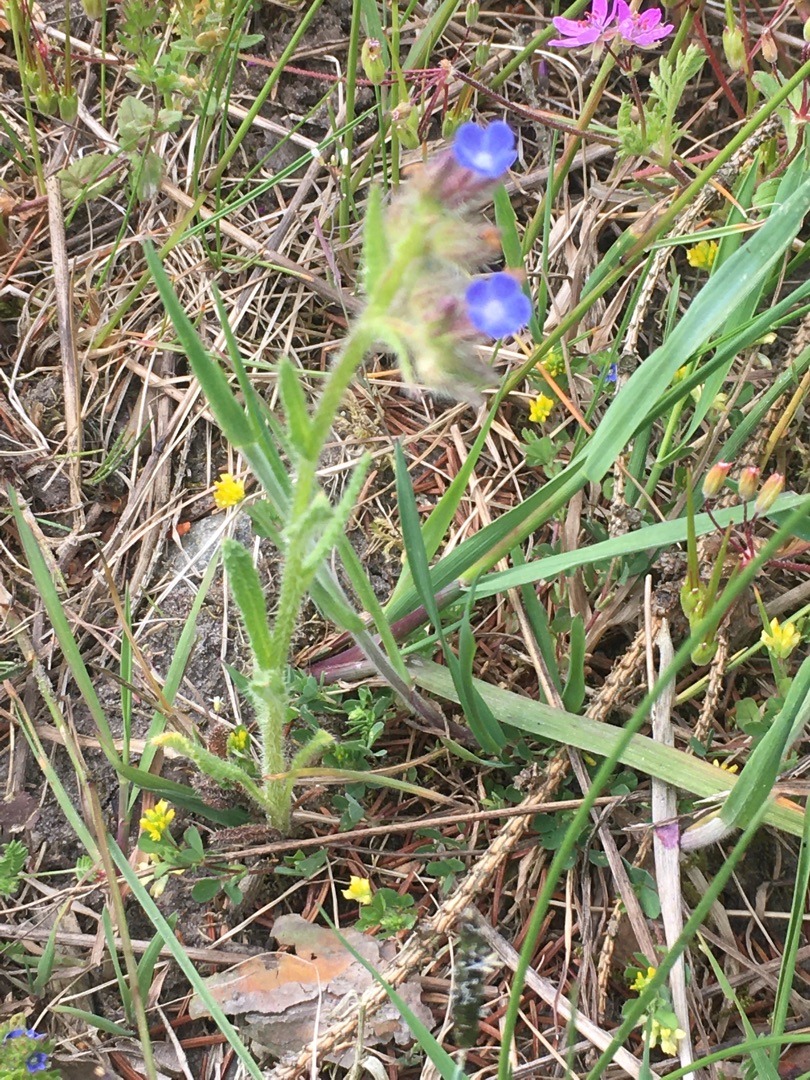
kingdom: Plantae
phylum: Tracheophyta
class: Magnoliopsida
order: Boraginales
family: Boraginaceae
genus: Lycopsis
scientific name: Lycopsis arvensis
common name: Krumhals
